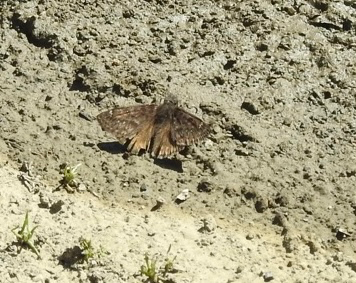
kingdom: Animalia
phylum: Arthropoda
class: Insecta
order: Lepidoptera
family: Hesperiidae
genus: Erynnis
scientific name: Erynnis propertius
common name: Propertius Duskywing
